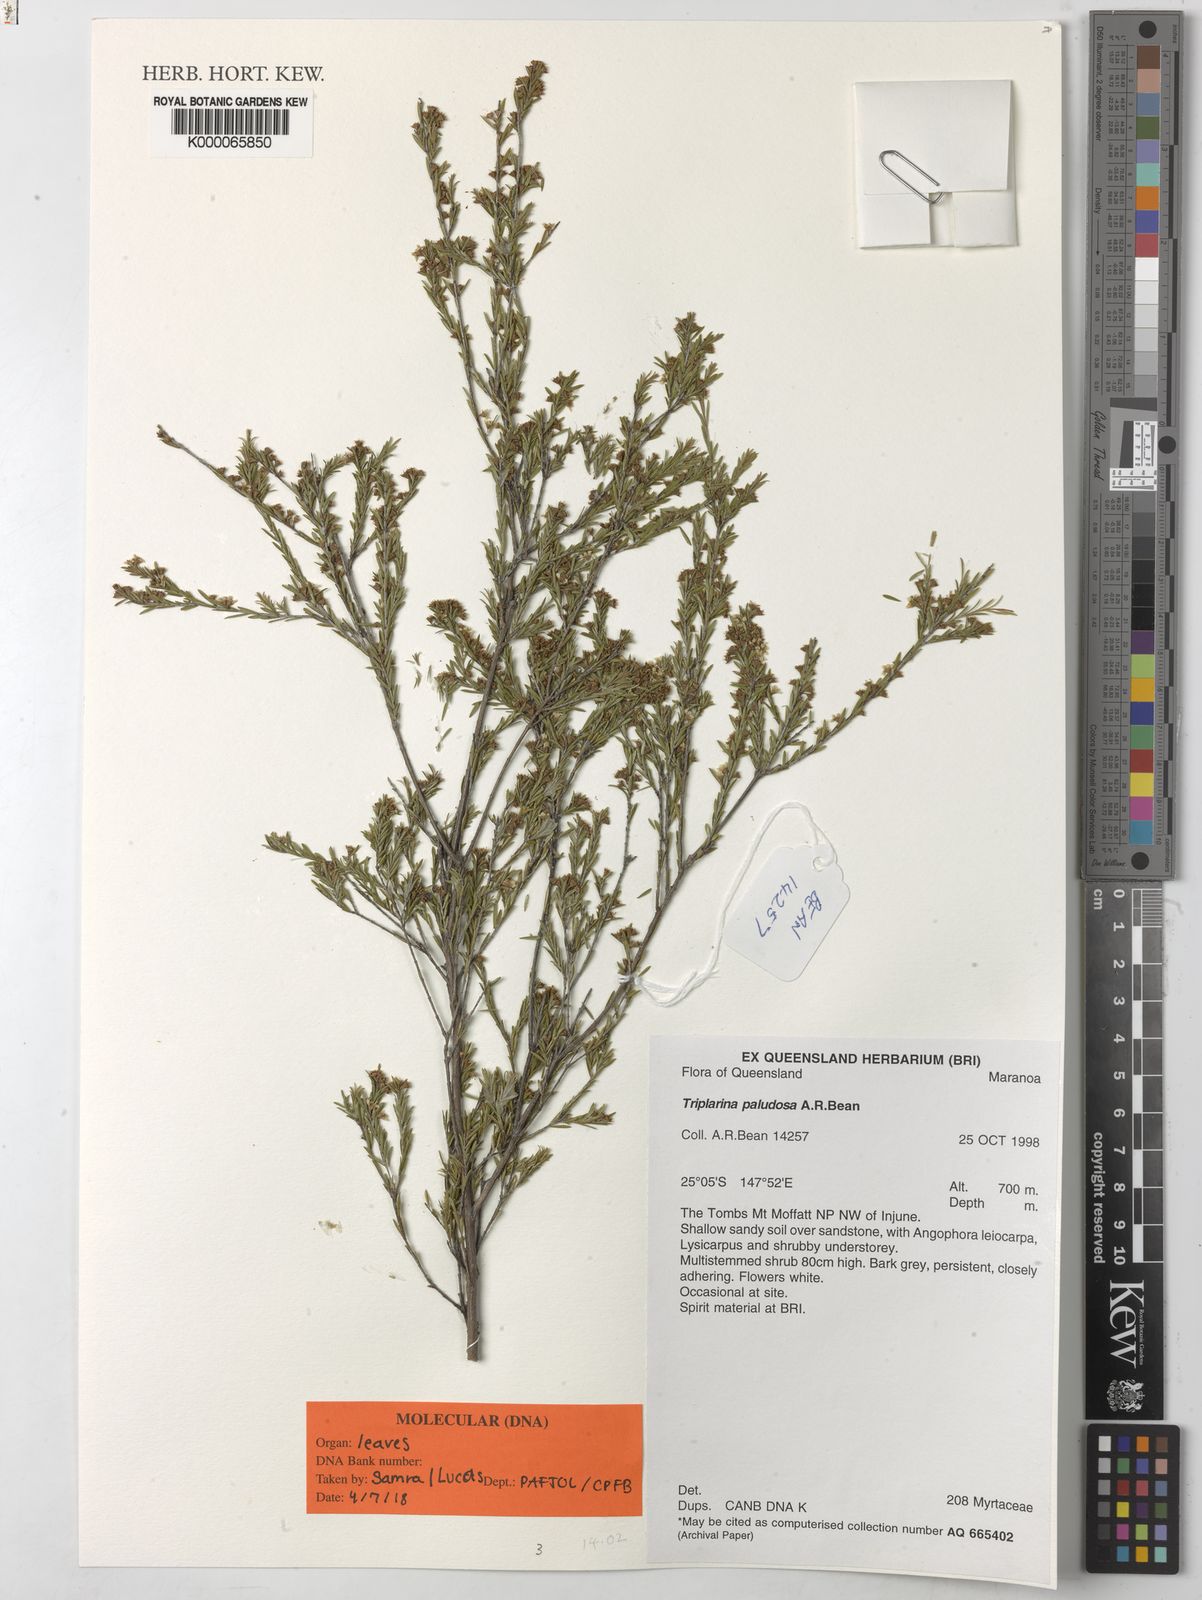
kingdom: Plantae
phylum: Tracheophyta
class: Magnoliopsida
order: Myrtales
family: Myrtaceae
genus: Triplarina
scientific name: Triplarina paludosa
